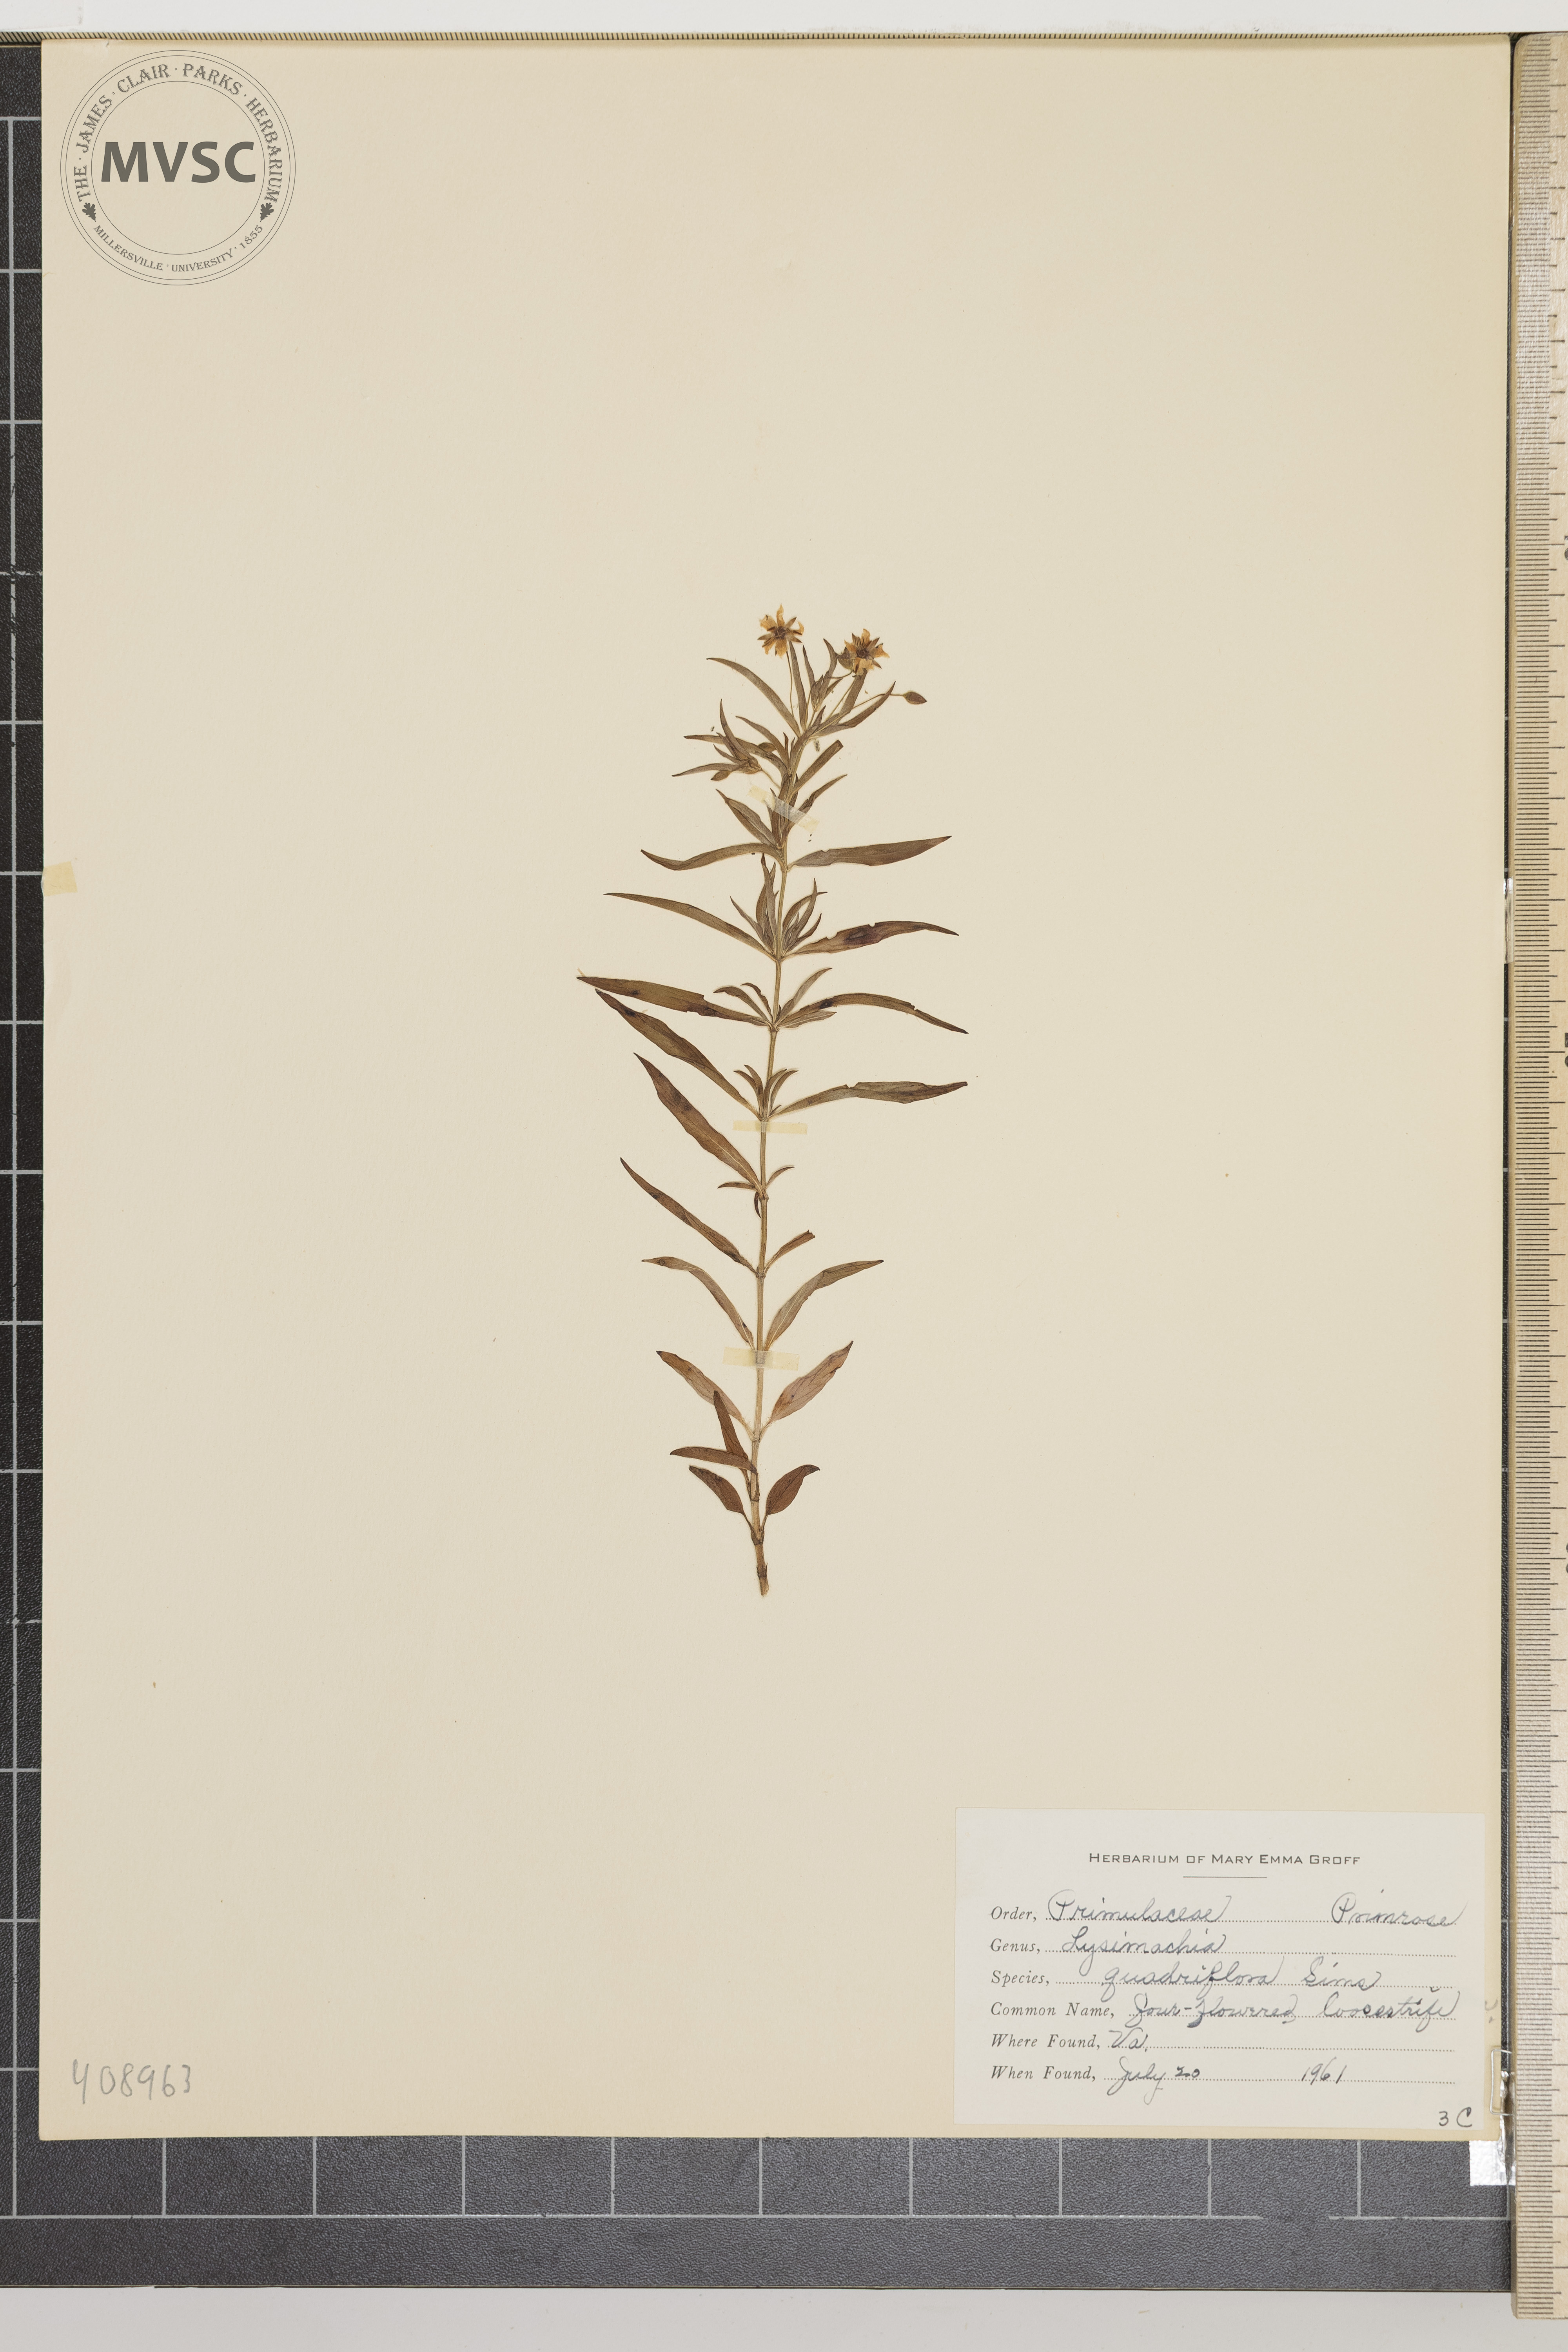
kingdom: Plantae
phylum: Tracheophyta
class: Magnoliopsida
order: Ericales
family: Primulaceae
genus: Lysimachia
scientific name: Lysimachia quadrifolia
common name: Four-flowered loosestrife
